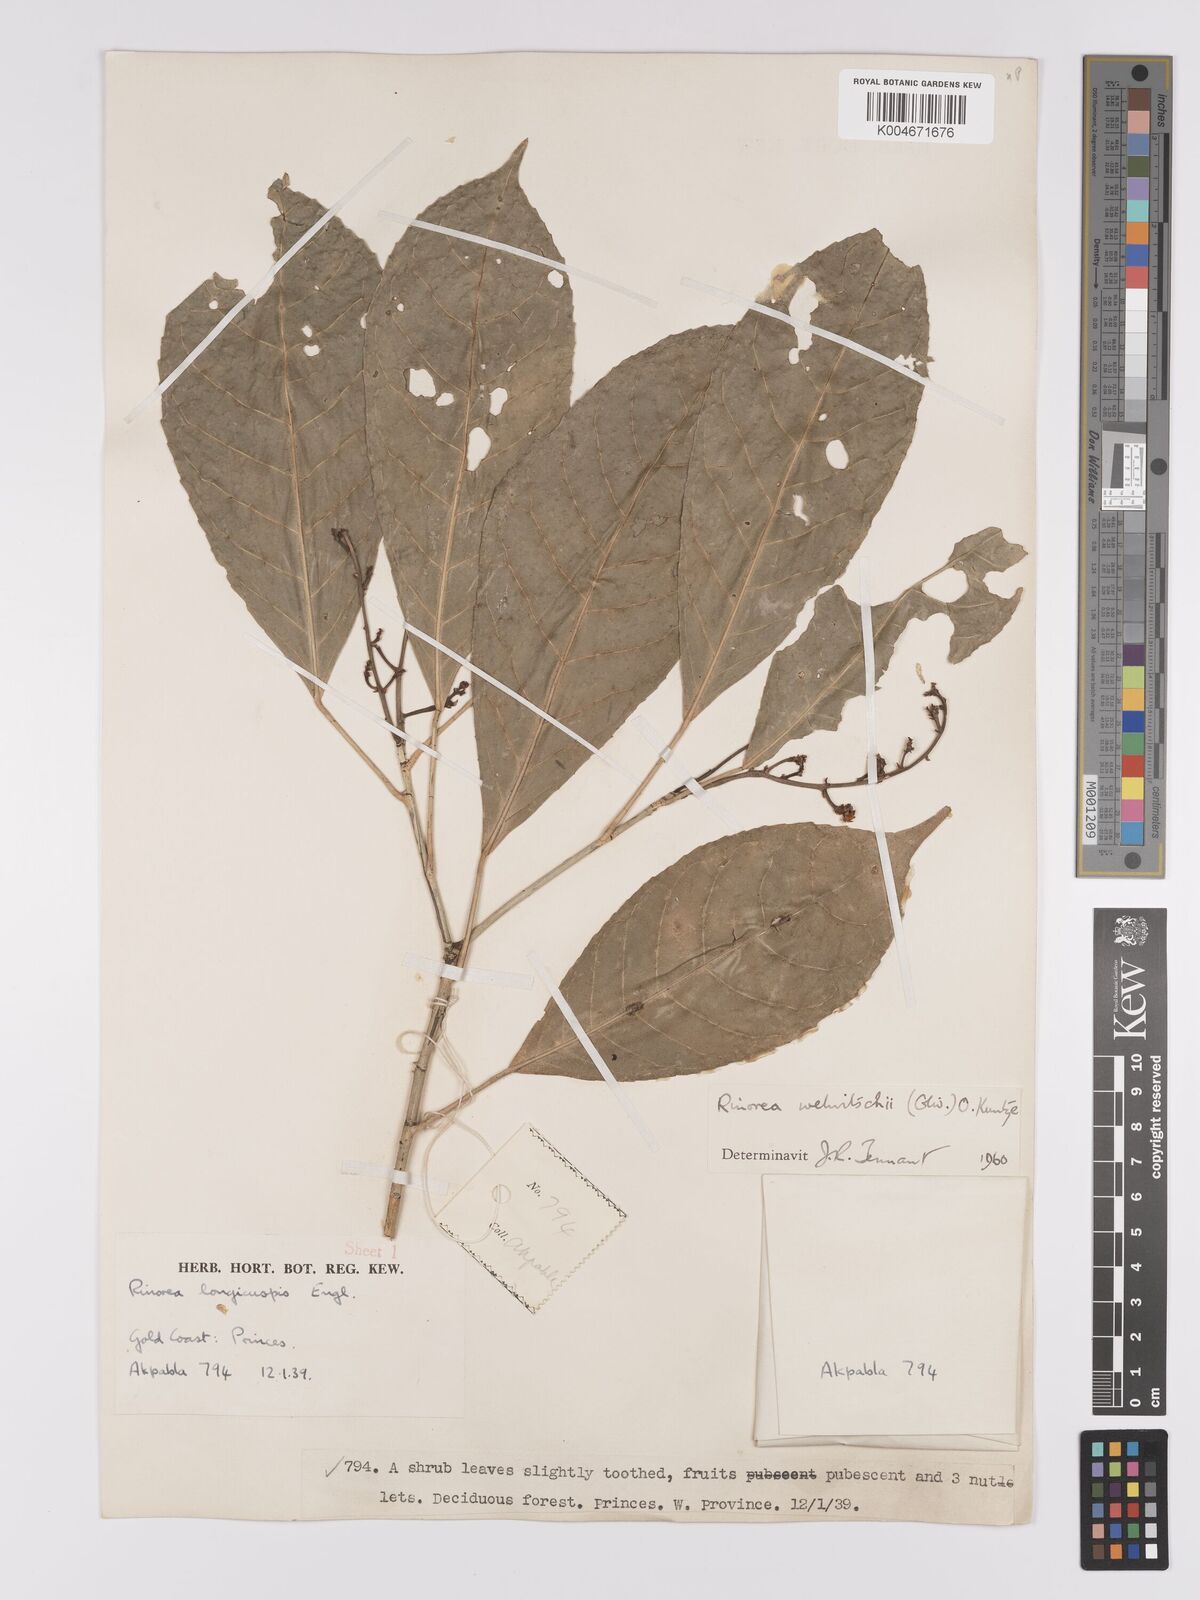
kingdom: Plantae
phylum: Tracheophyta
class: Magnoliopsida
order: Malpighiales
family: Violaceae
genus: Rinorea
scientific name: Rinorea welwitschii
